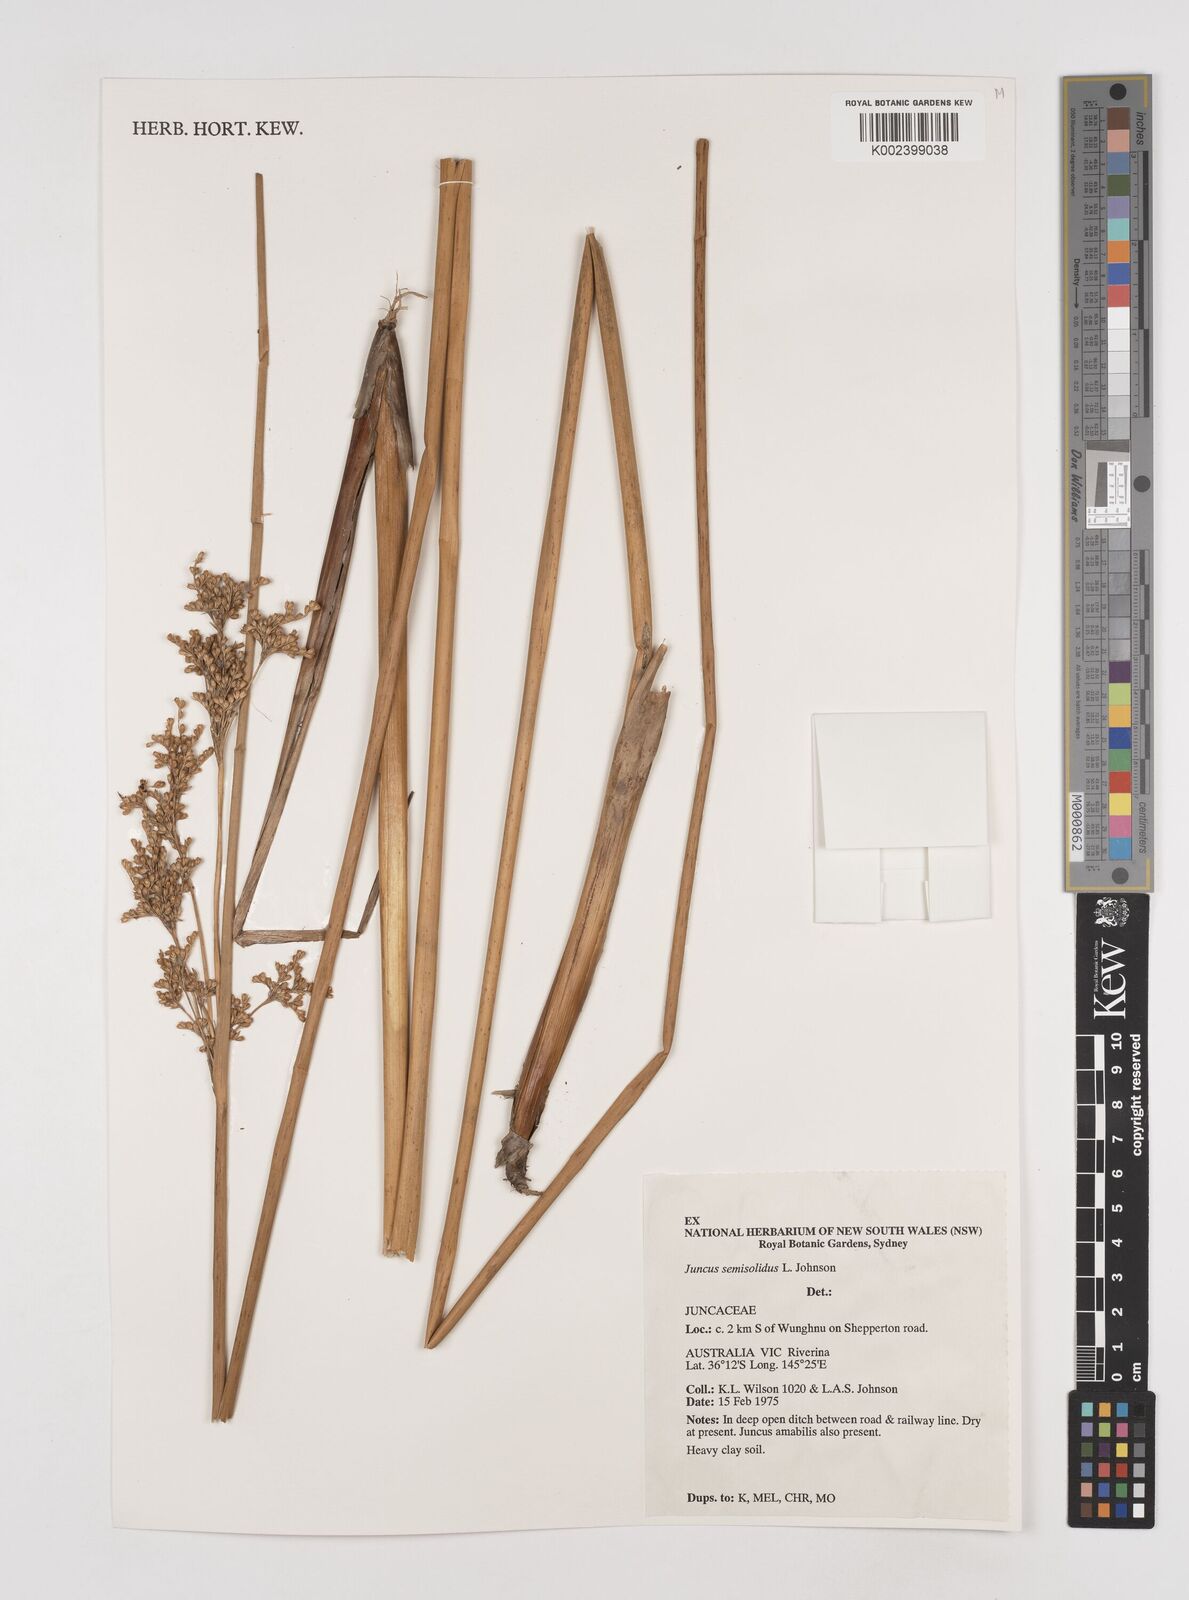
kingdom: Plantae
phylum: Tracheophyta
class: Liliopsida
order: Poales
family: Juncaceae
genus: Juncus
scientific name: Juncus semisolidus
